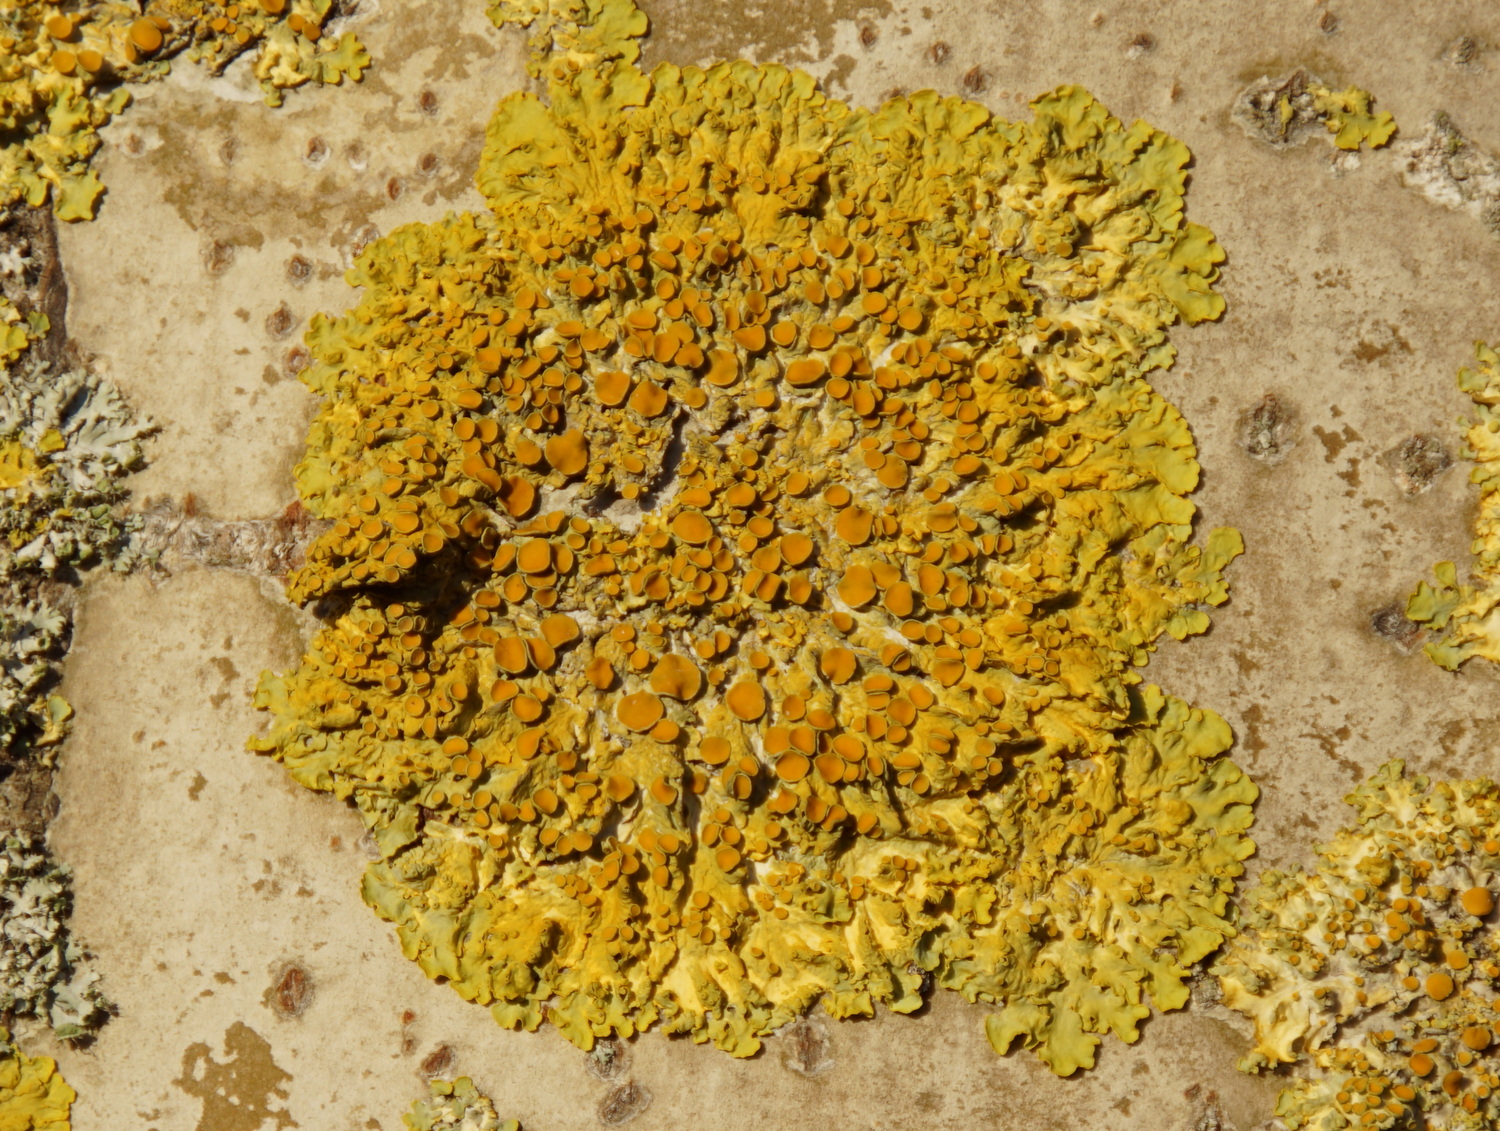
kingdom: Fungi
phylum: Ascomycota
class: Lecanoromycetes
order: Teloschistales
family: Teloschistaceae
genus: Xanthoria
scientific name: Xanthoria parietina
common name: almindelig væggelav
